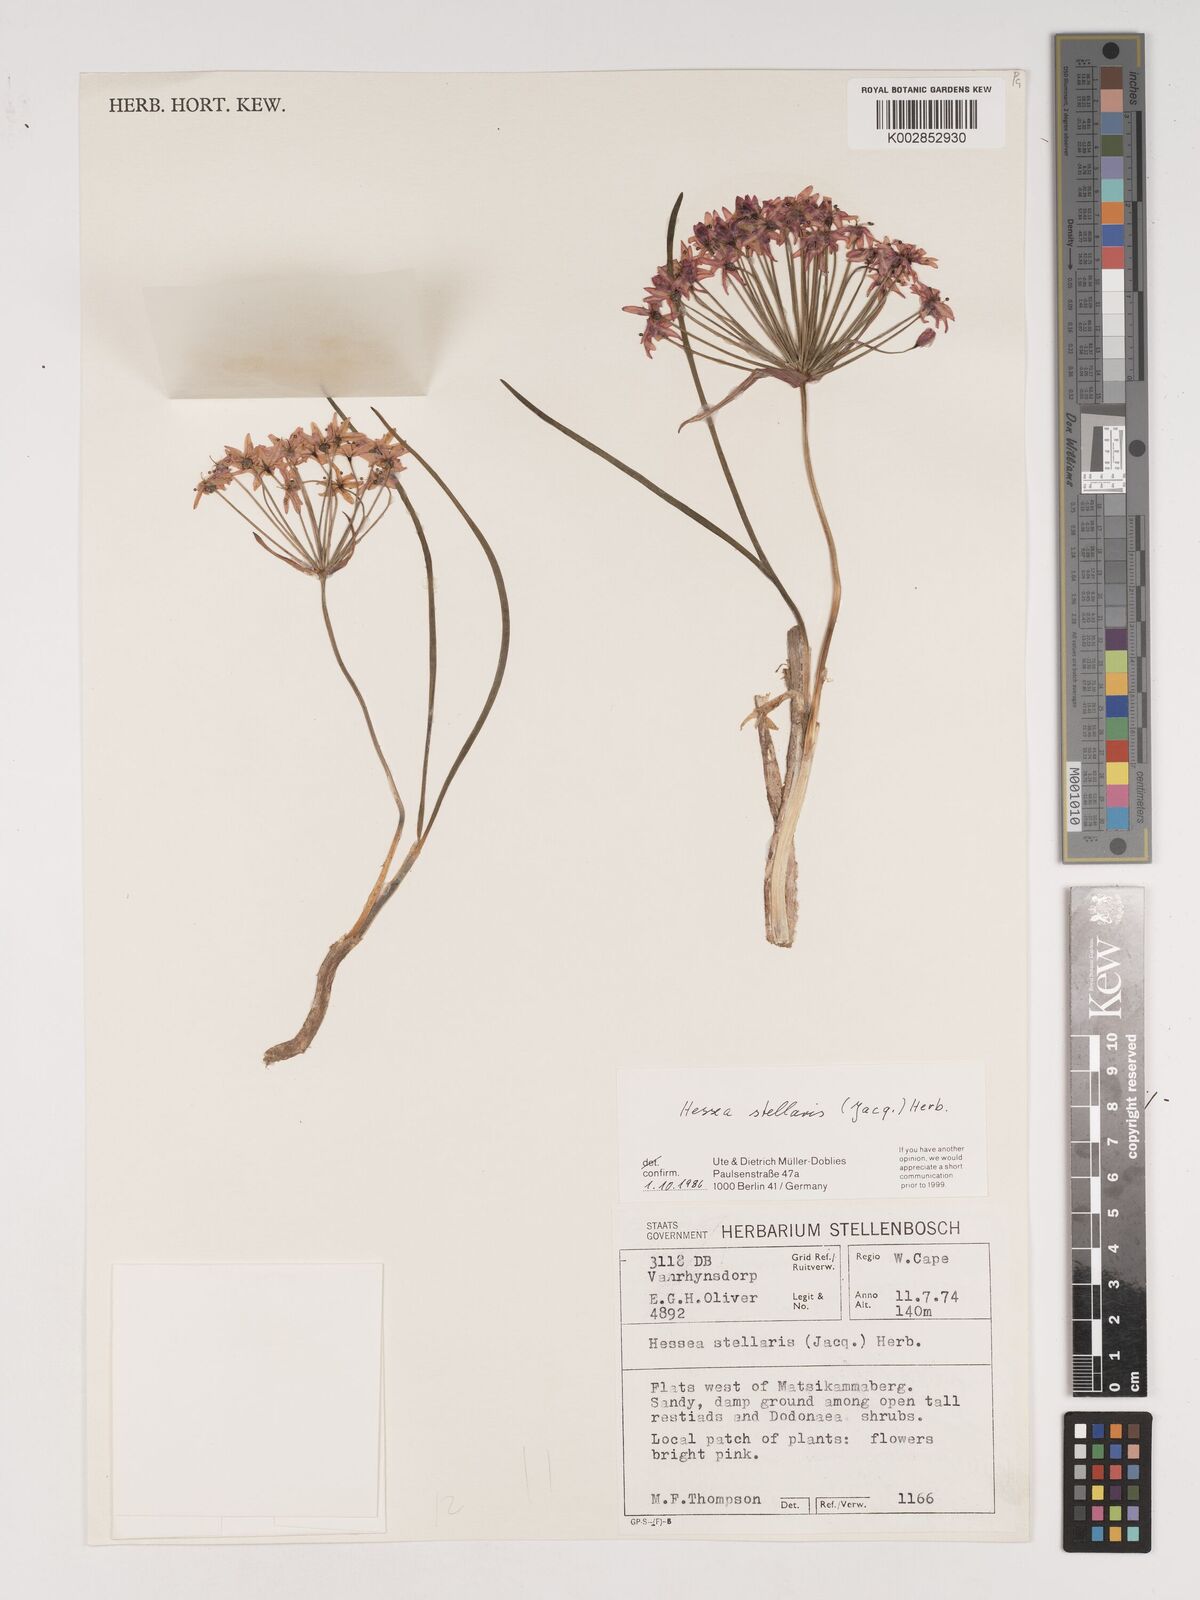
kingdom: Plantae
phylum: Tracheophyta
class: Liliopsida
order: Asparagales
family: Amaryllidaceae
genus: Hessea
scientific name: Hessea stellaris
